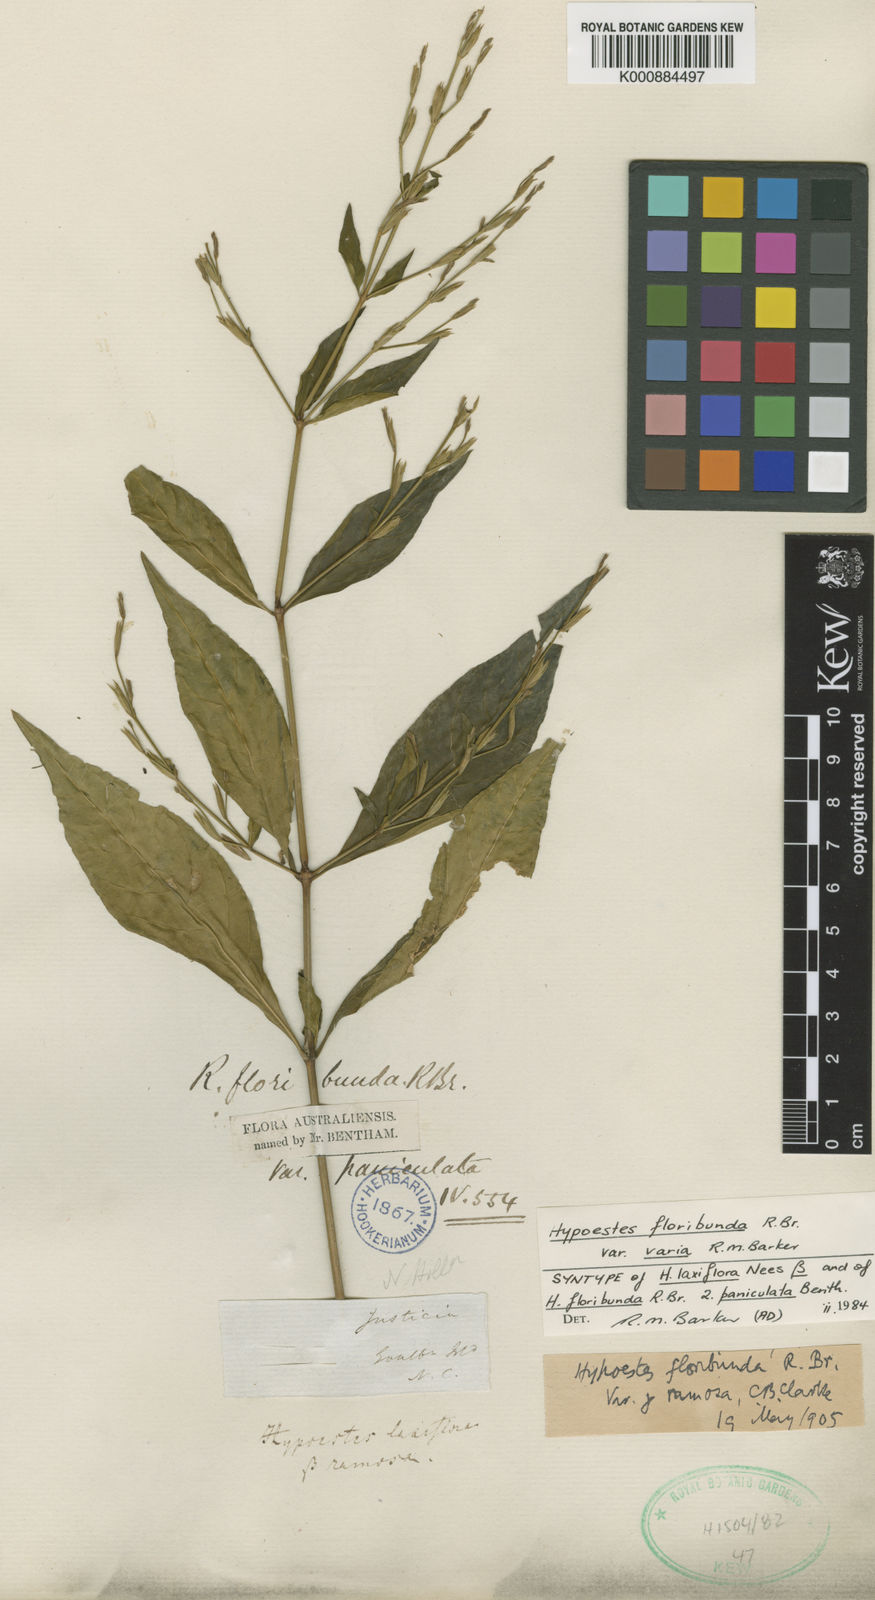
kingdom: Plantae
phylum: Tracheophyta
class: Magnoliopsida
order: Lamiales
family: Acanthaceae
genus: Hypoestes
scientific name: Hypoestes floribunda
